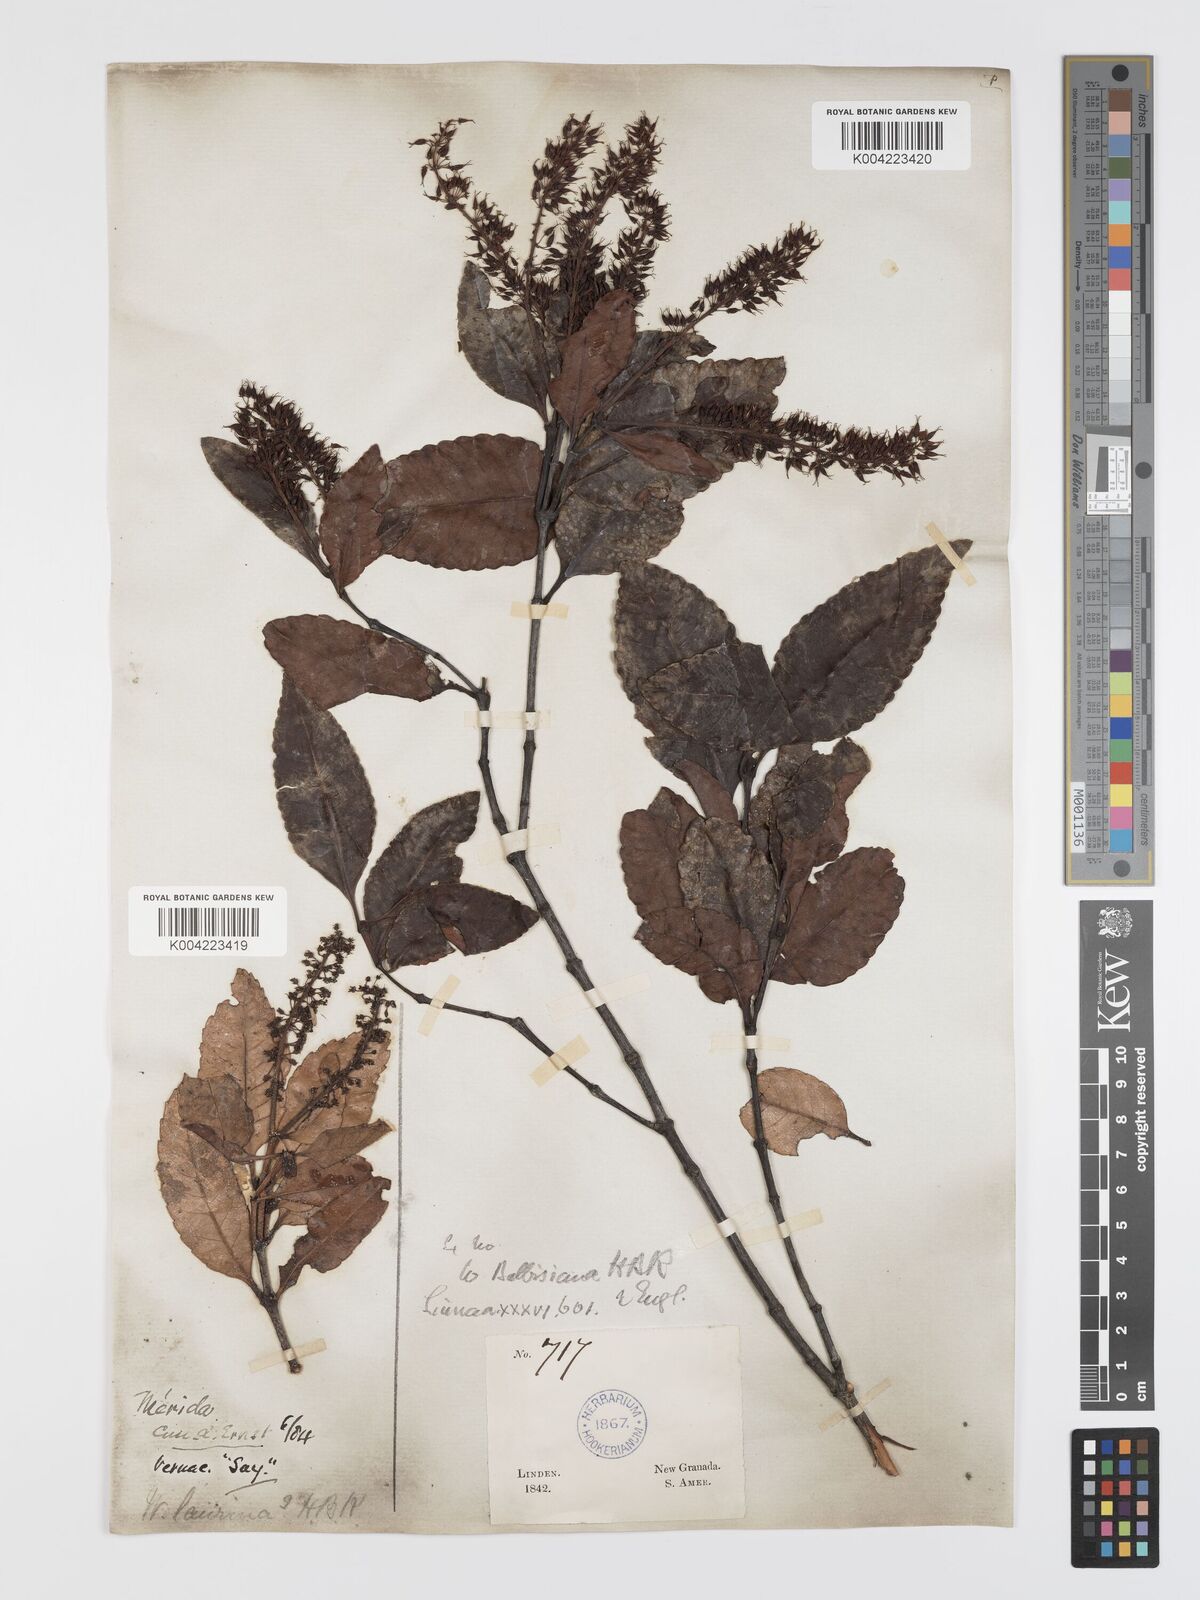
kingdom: Plantae
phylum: Tracheophyta
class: Magnoliopsida
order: Oxalidales
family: Cunoniaceae
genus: Weinmannia
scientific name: Weinmannia balbisana
